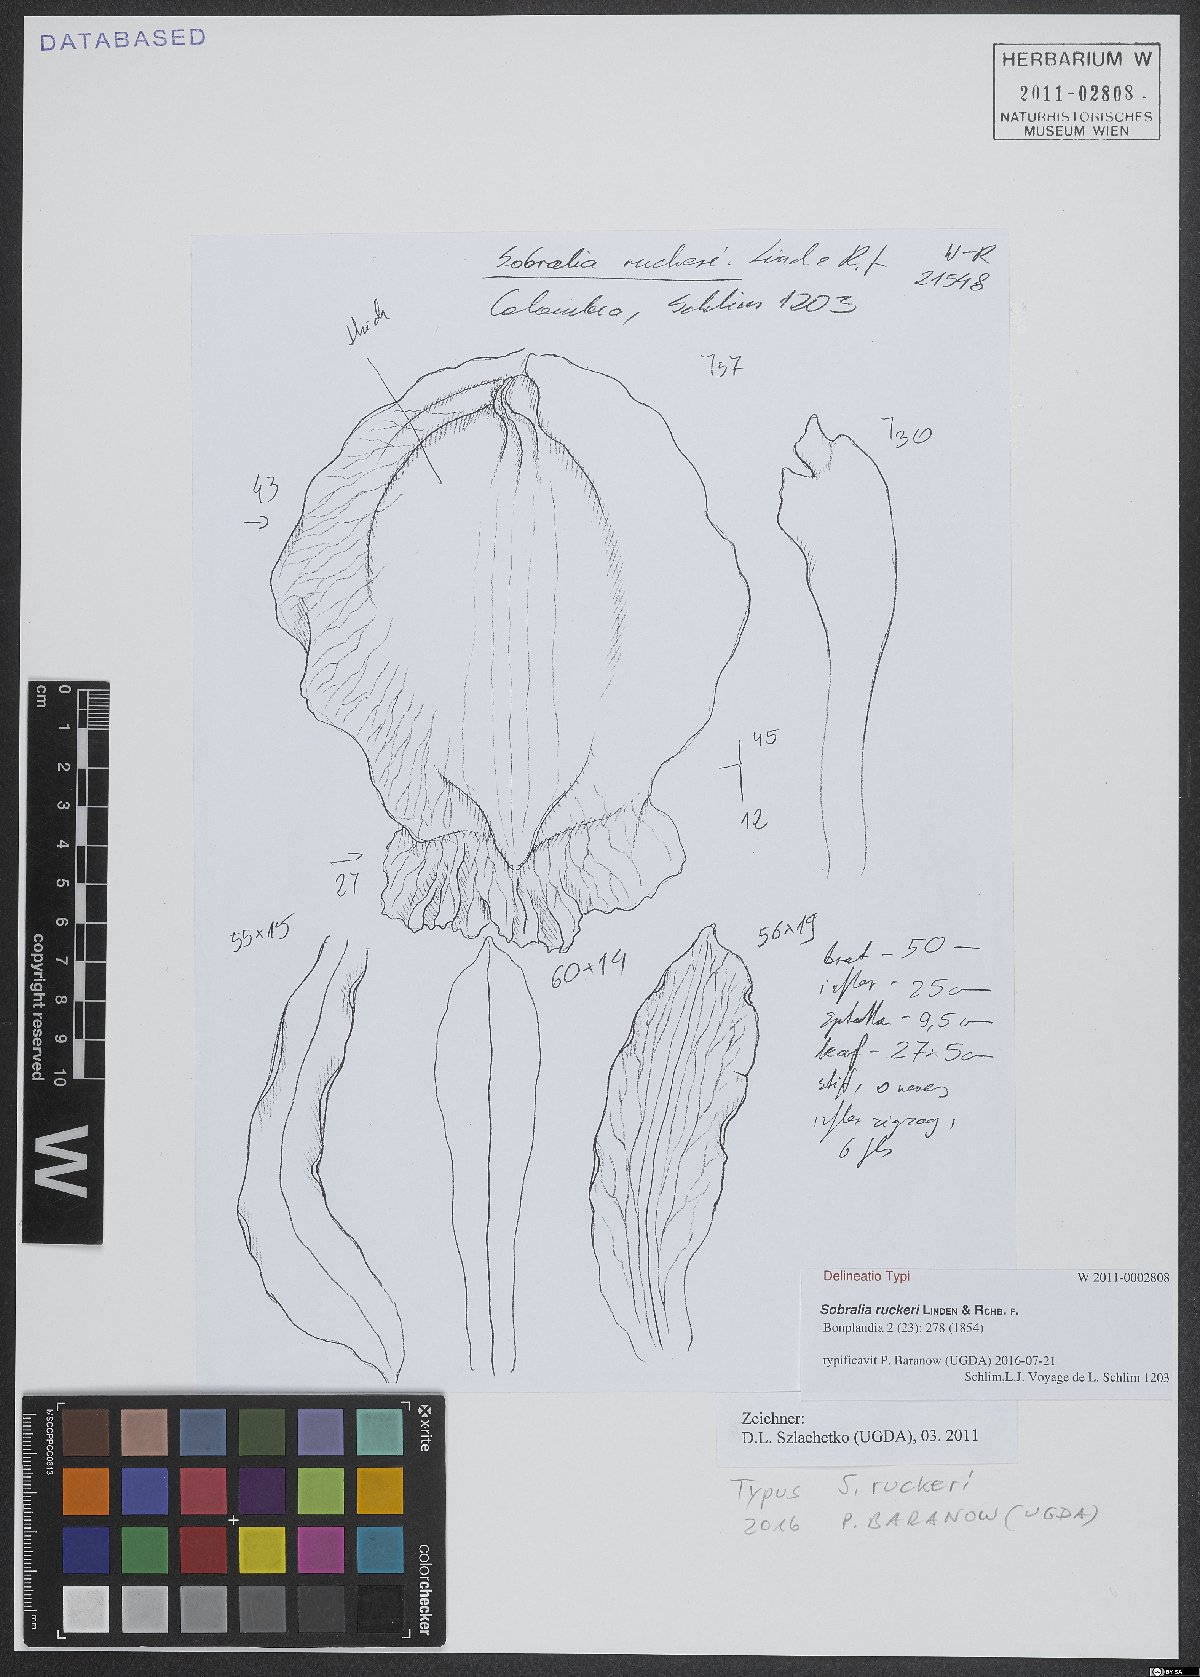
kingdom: Plantae
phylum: Tracheophyta
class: Liliopsida
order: Asparagales
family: Orchidaceae
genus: Sobralia
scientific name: Sobralia ruckeri
